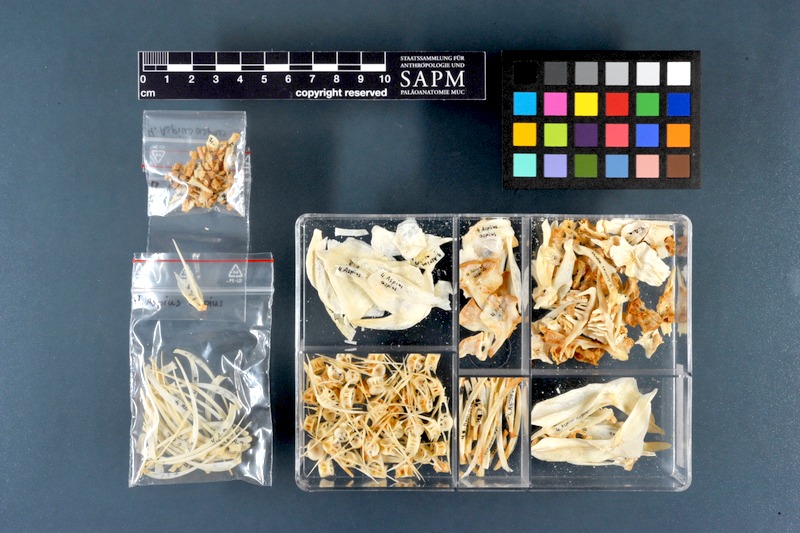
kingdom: Animalia
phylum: Chordata
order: Cypriniformes
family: Cyprinidae
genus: Leuciscus
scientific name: Leuciscus aspius
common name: Asp
